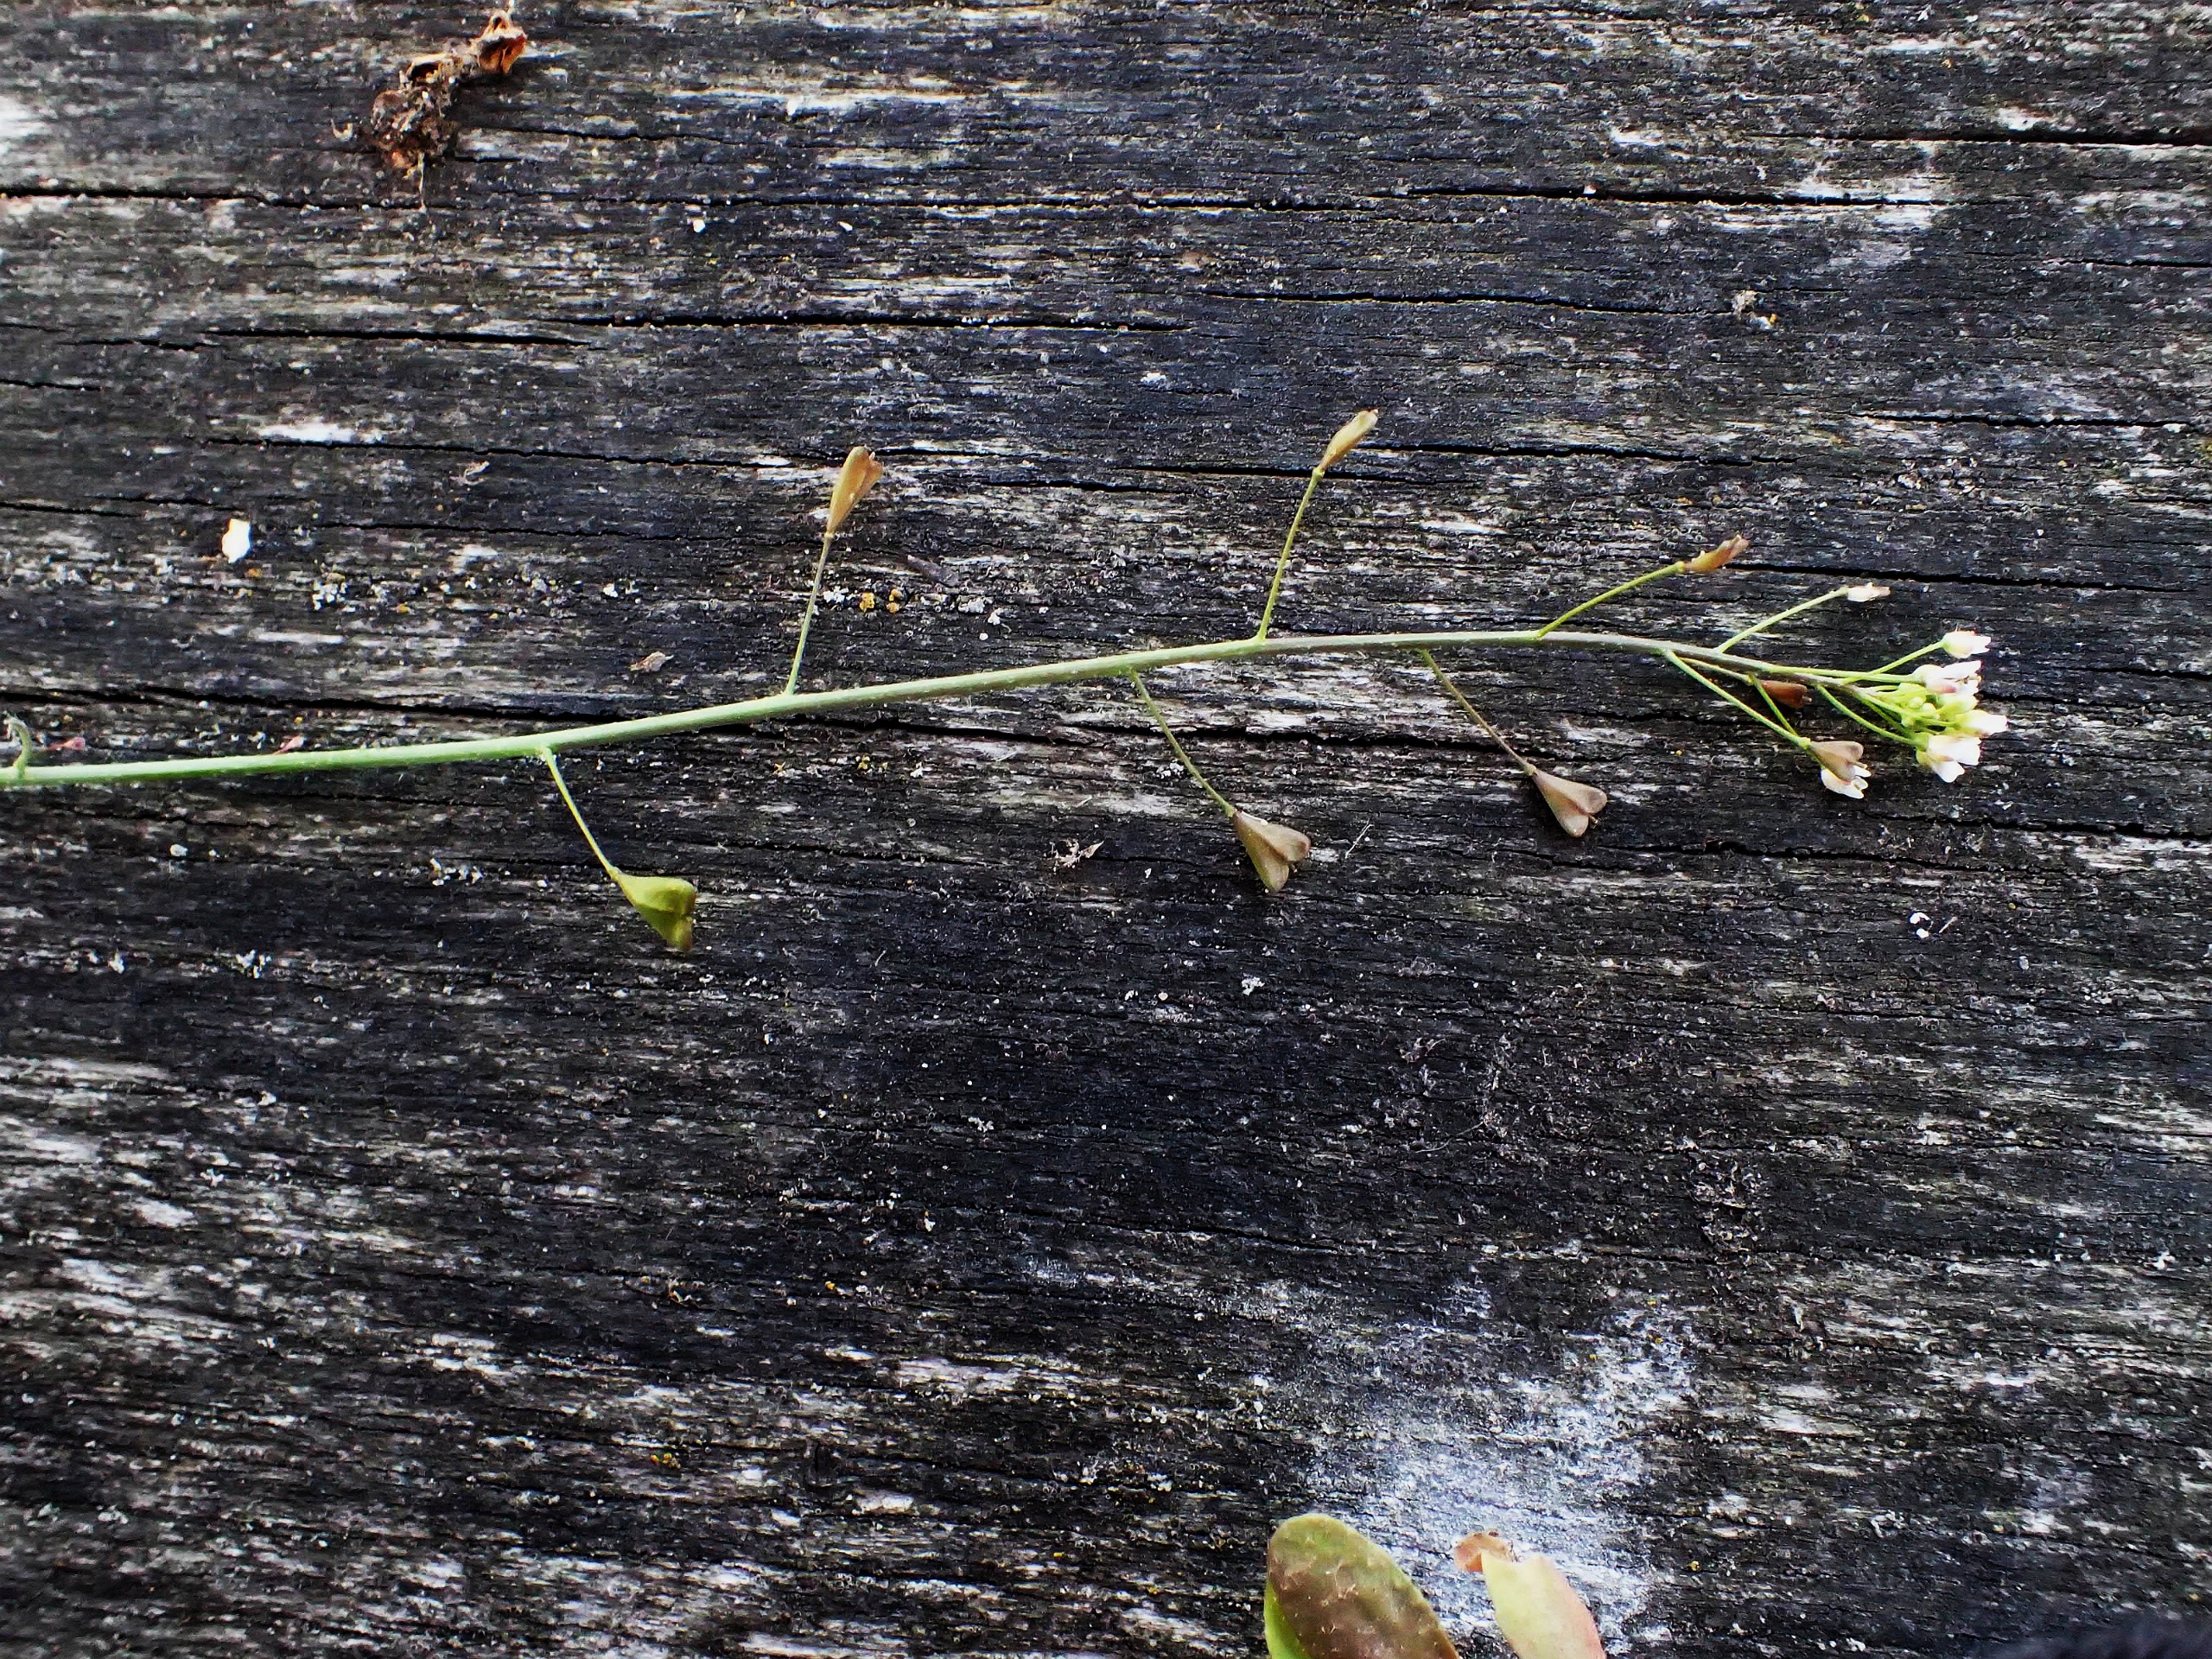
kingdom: Plantae
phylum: Tracheophyta
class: Magnoliopsida
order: Brassicales
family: Brassicaceae
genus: Capsella
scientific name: Capsella bursa-pastoris
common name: Hyrdetaske
